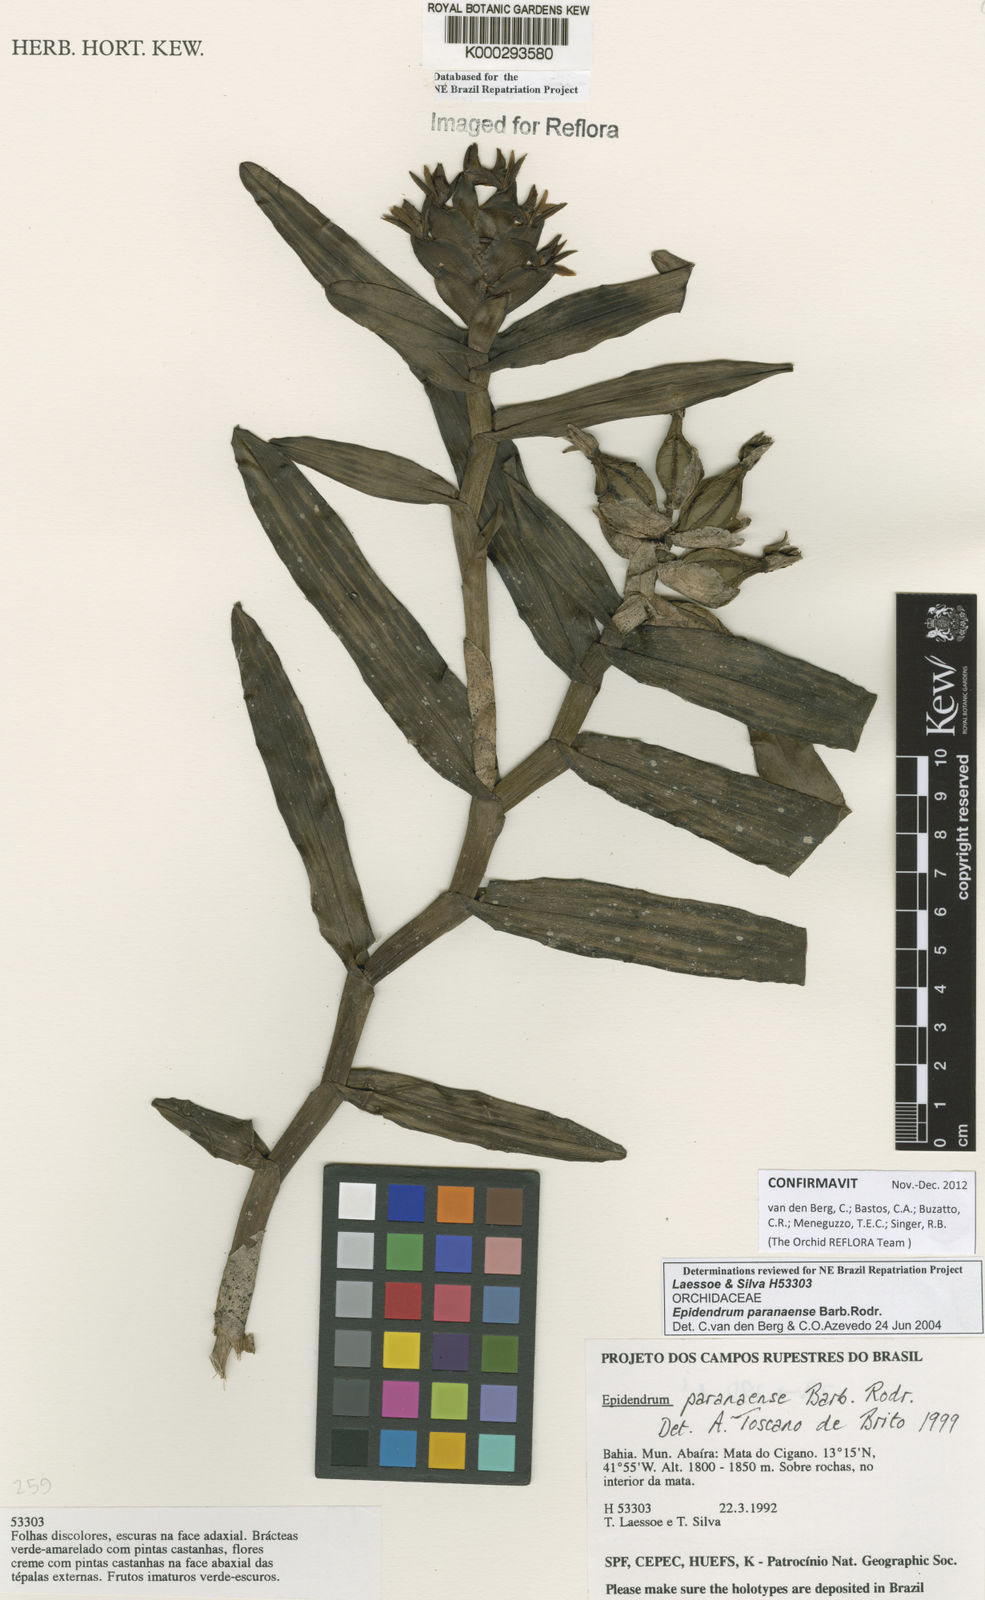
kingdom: Plantae
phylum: Tracheophyta
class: Liliopsida
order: Asparagales
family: Orchidaceae
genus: Epidendrum
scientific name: Epidendrum paranaense
